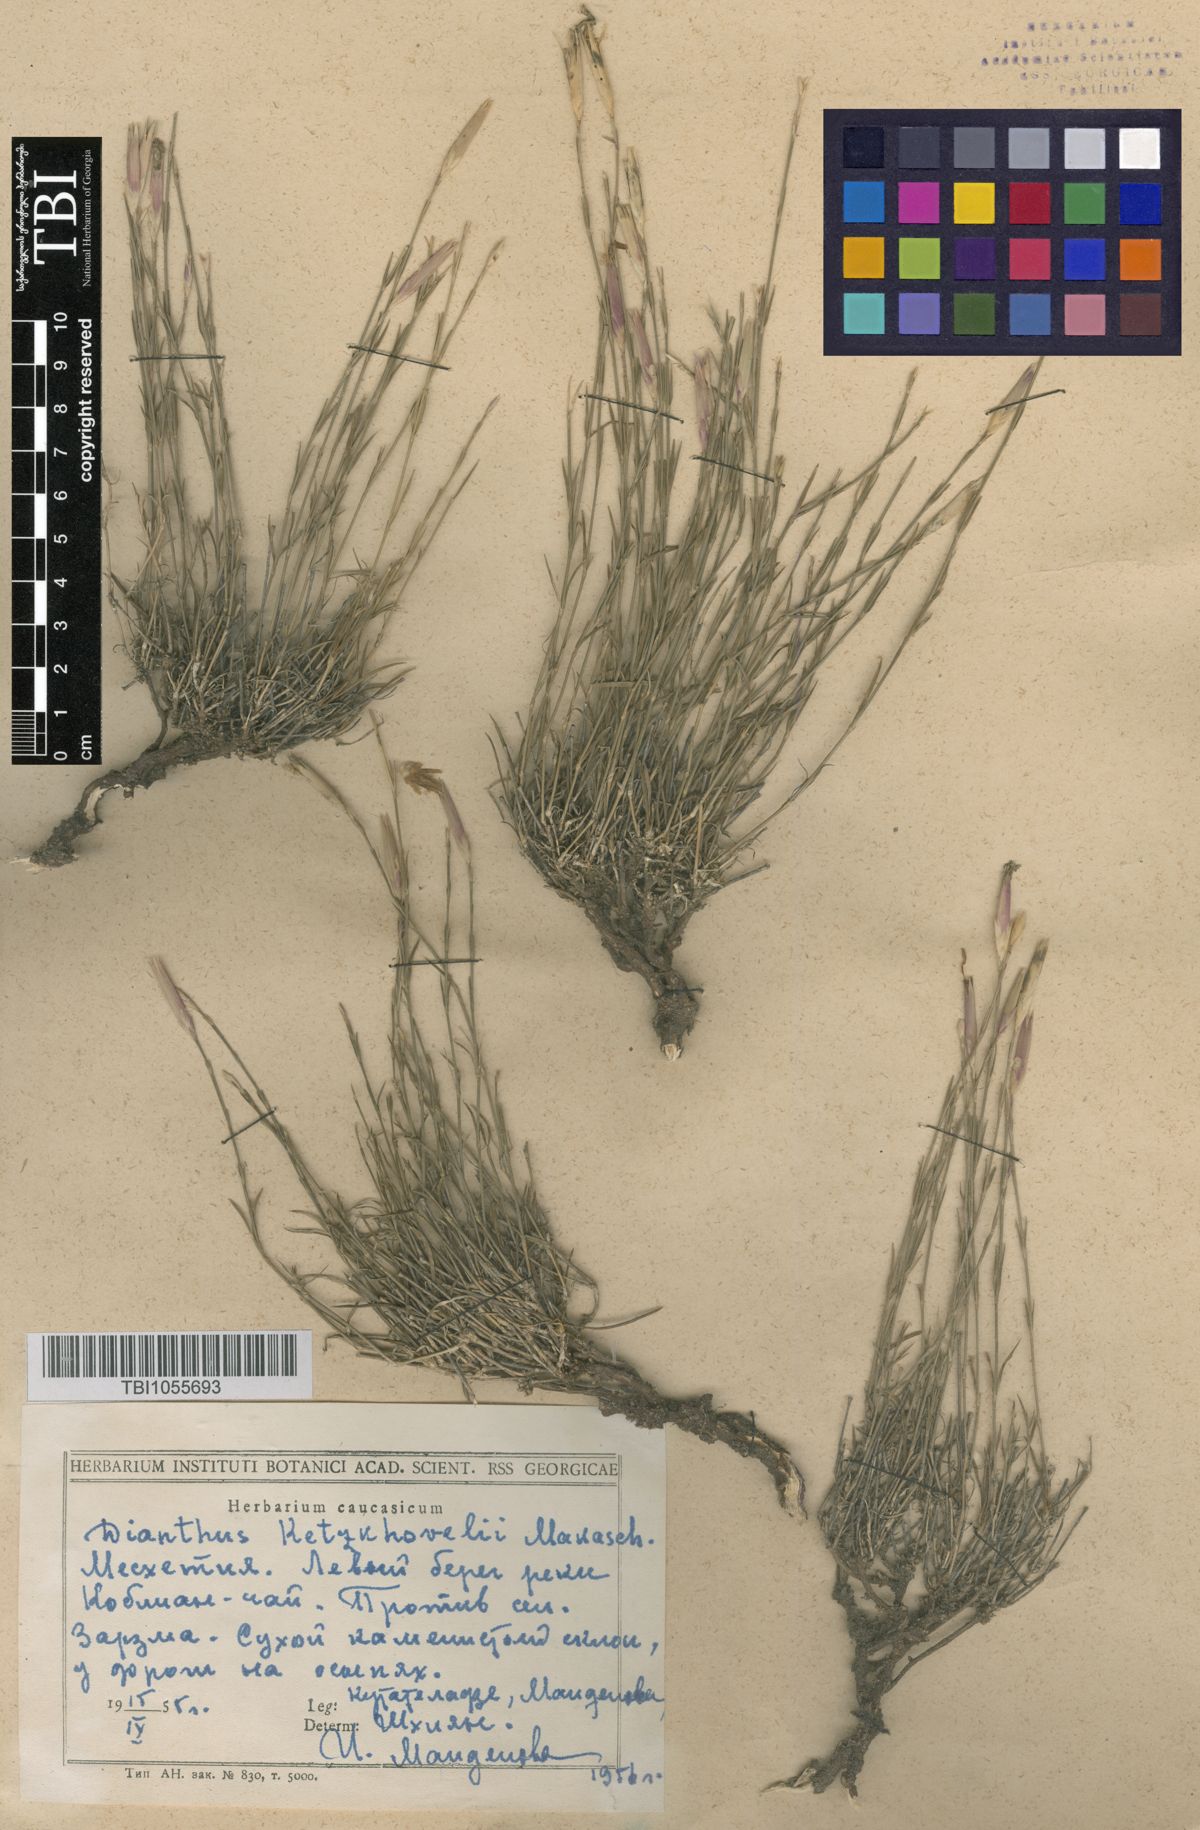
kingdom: Plantae
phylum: Tracheophyta
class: Magnoliopsida
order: Caryophyllales
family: Caryophyllaceae
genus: Dianthus
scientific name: Dianthus orientalis
